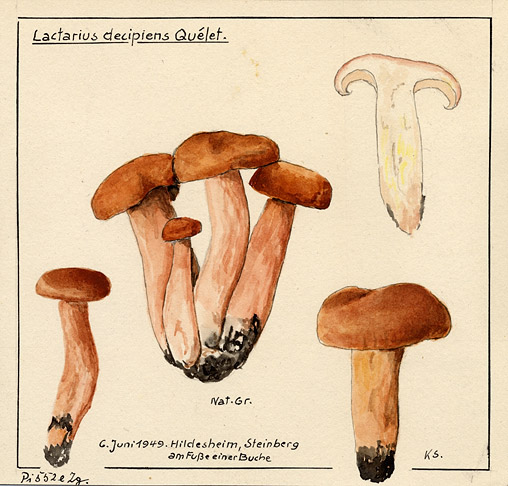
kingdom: Fungi
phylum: Basidiomycota
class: Agaricomycetes
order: Russulales
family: Russulaceae
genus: Lactarius
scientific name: Lactarius decipiens
